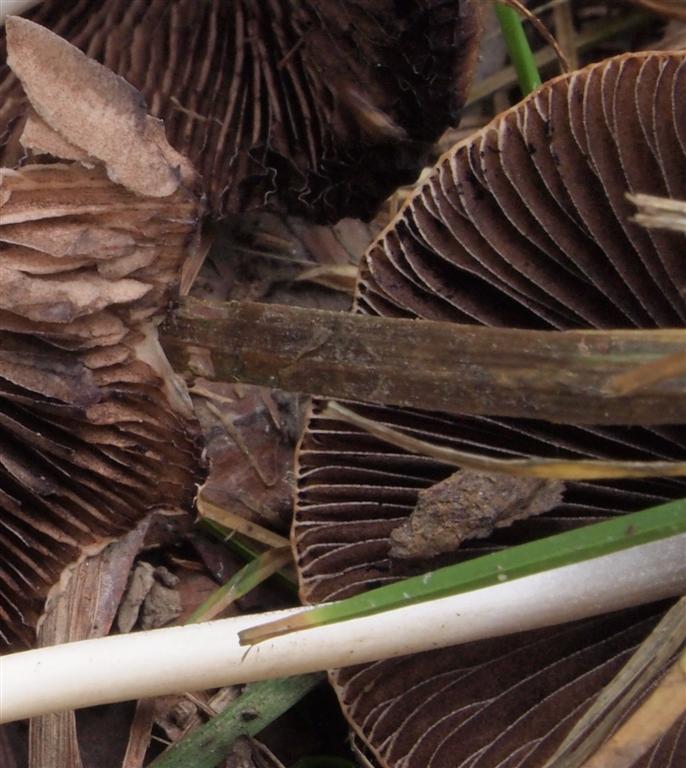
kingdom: Fungi
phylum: Basidiomycota
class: Agaricomycetes
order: Agaricales
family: Psathyrellaceae
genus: Parasola
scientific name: Parasola conopilea
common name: kegle-hjulhat
